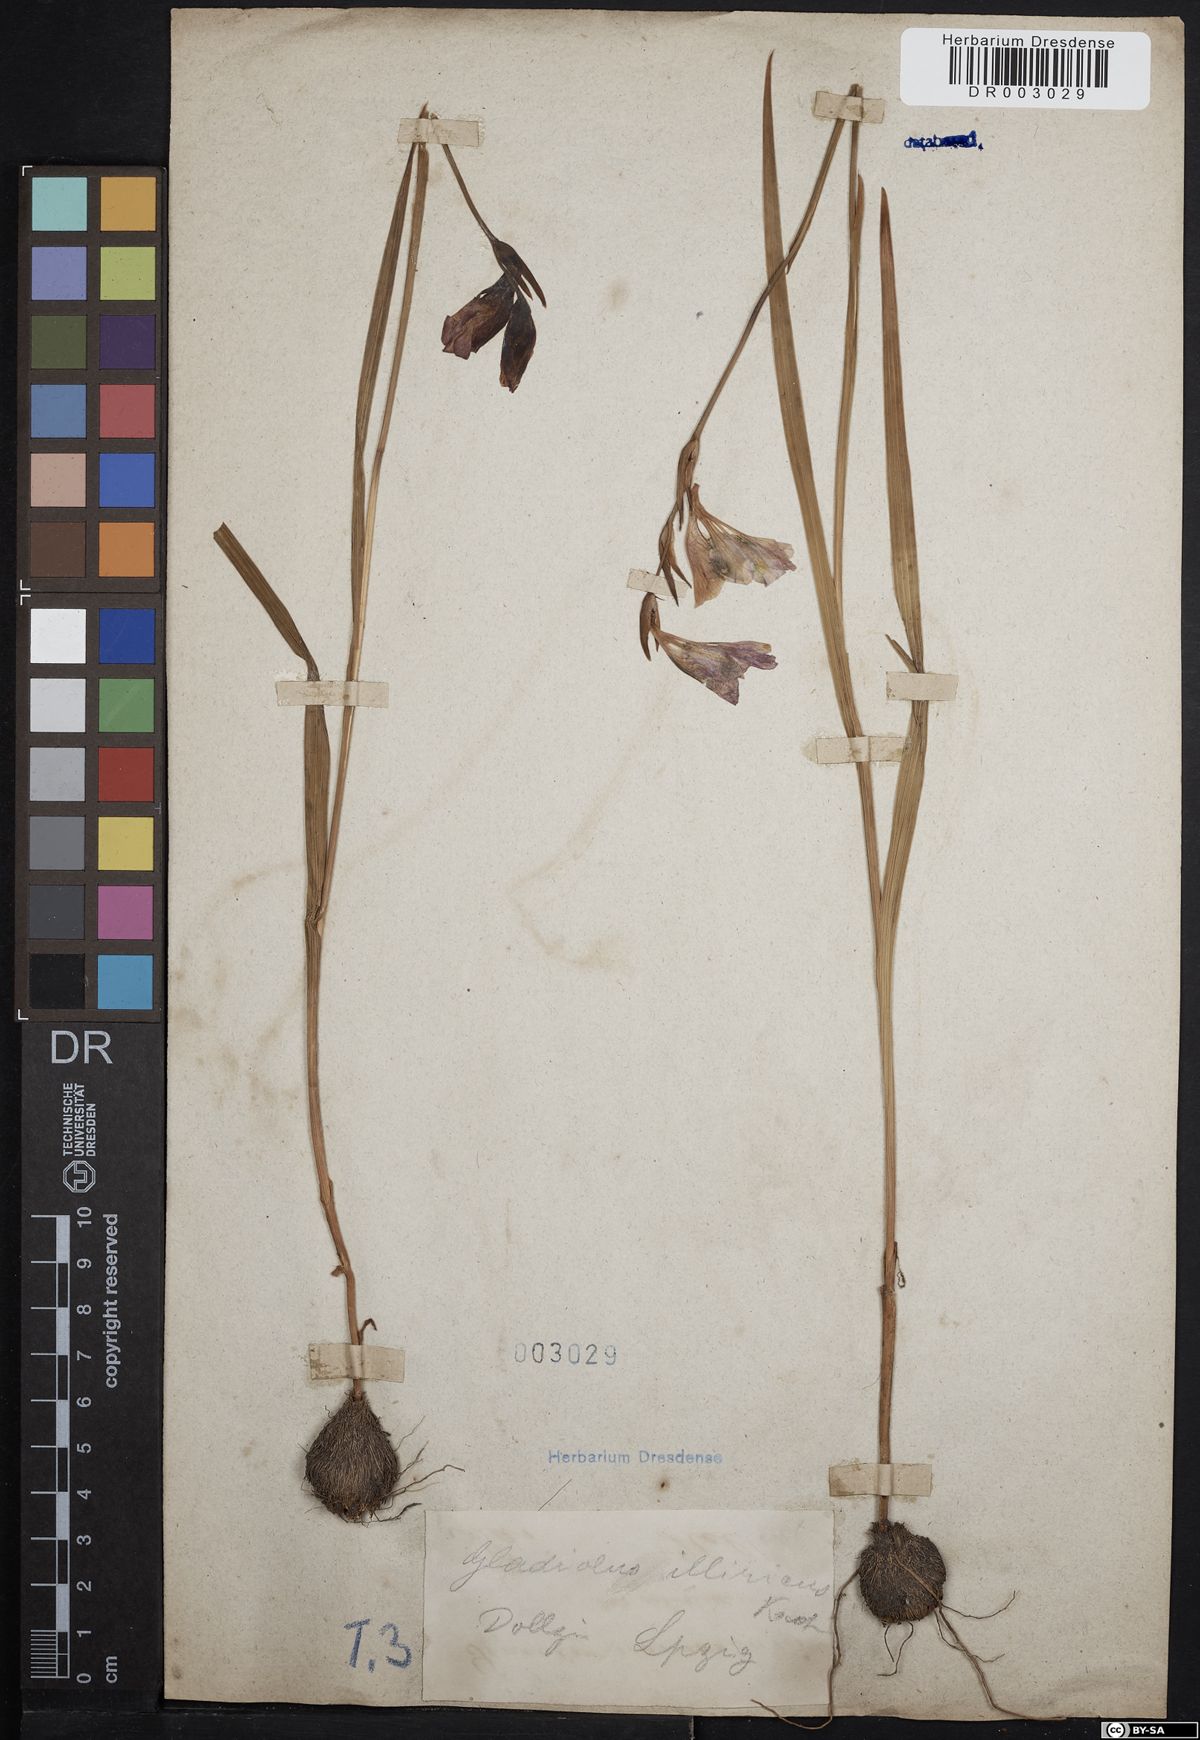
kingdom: Plantae
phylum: Tracheophyta
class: Liliopsida
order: Asparagales
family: Iridaceae
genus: Gladiolus
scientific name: Gladiolus illyricus
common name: Wild gladiolus
